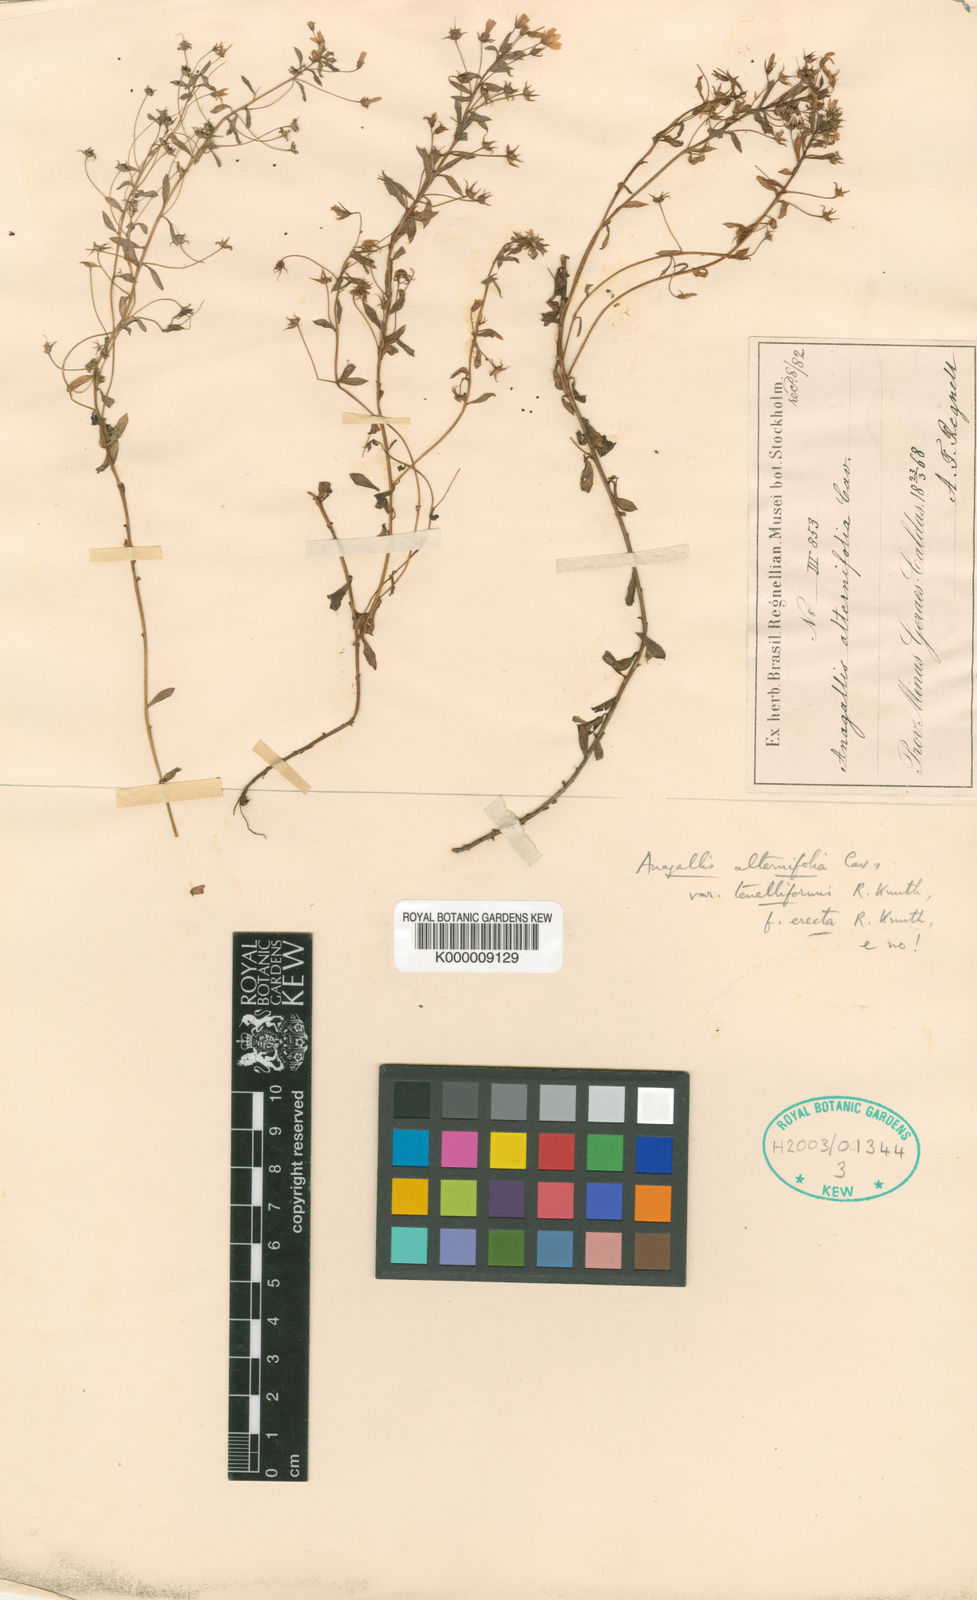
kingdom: Plantae
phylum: Tracheophyta
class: Magnoliopsida
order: Ericales
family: Primulaceae
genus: Lysimachia
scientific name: Lysimachia lanceola
